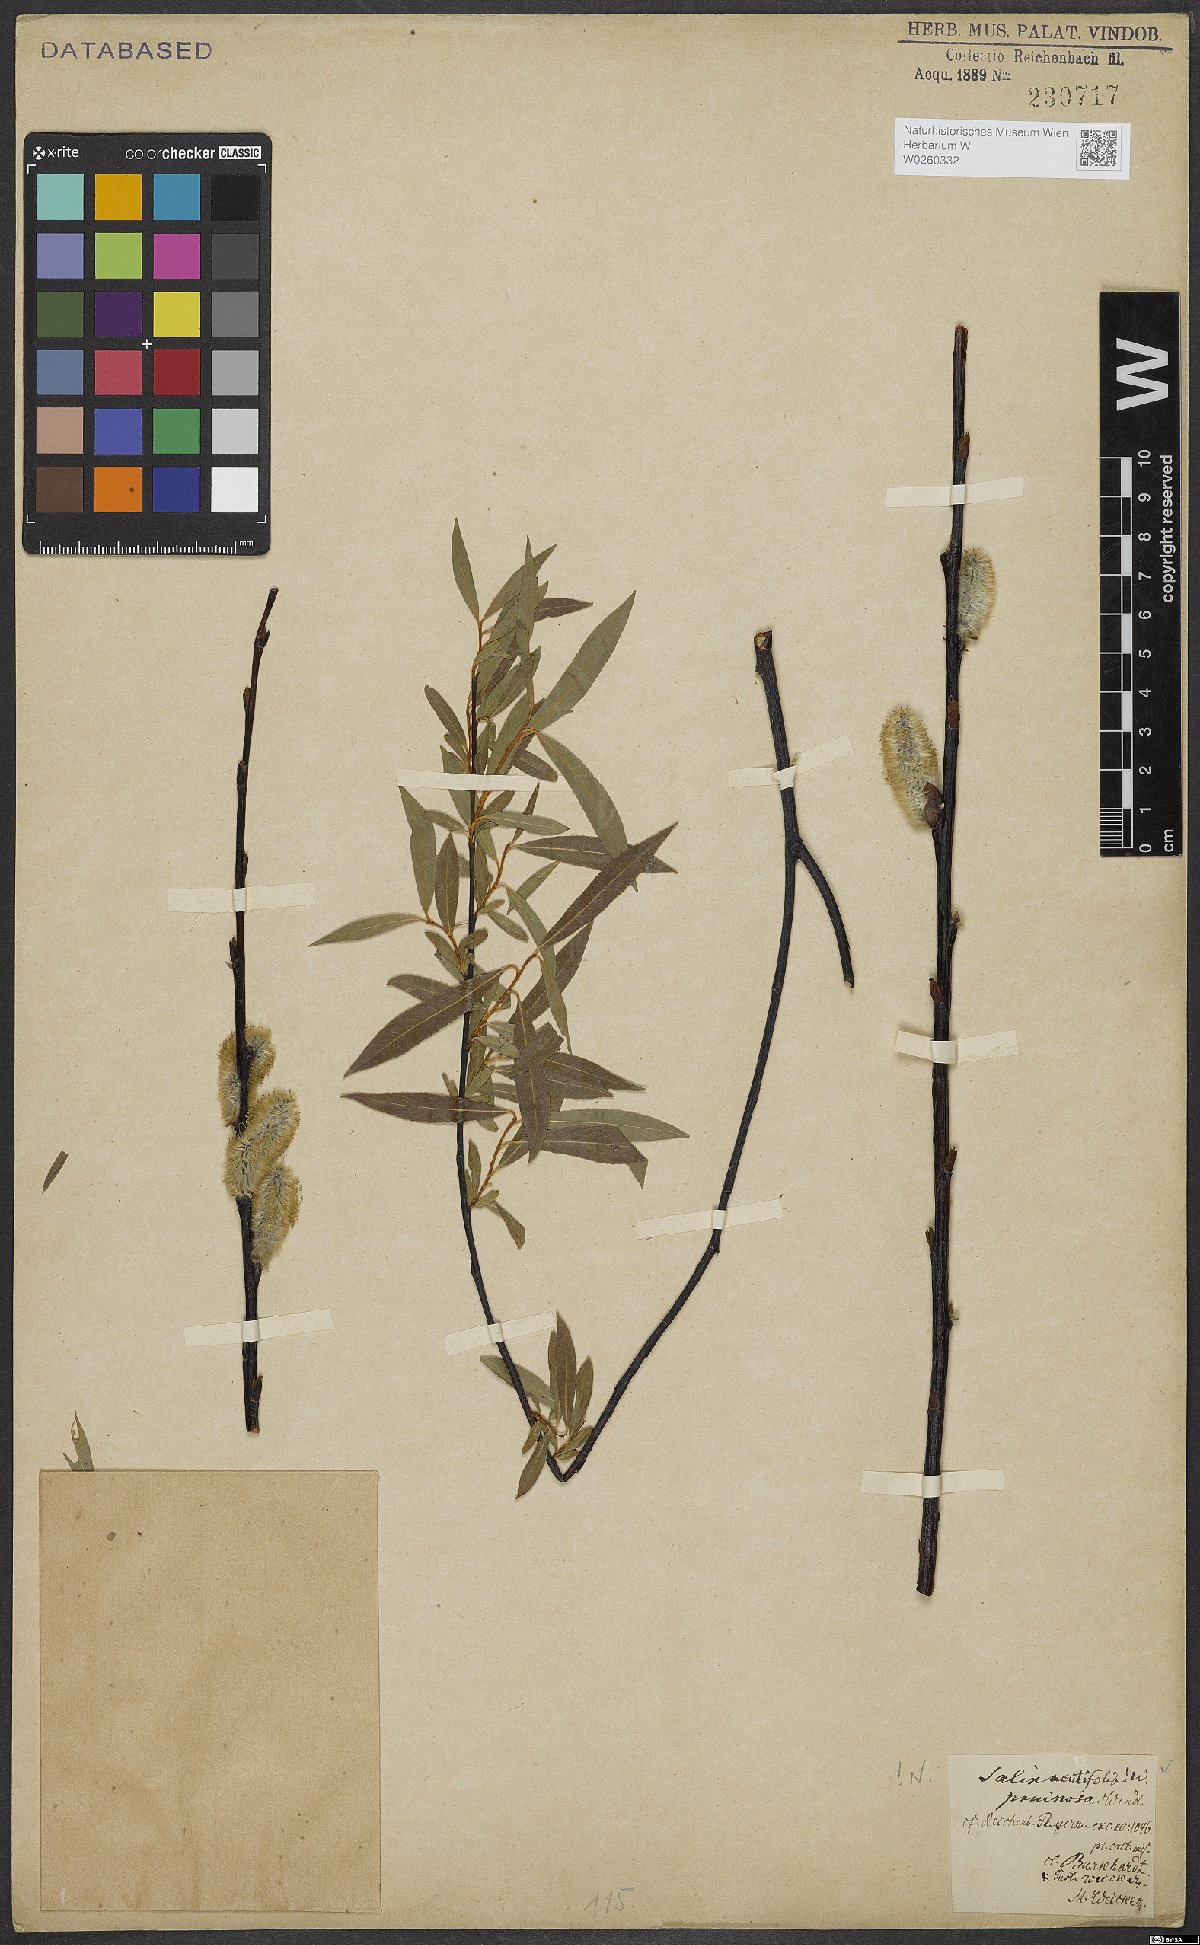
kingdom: Plantae
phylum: Tracheophyta
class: Magnoliopsida
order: Malpighiales
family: Salicaceae
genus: Salix
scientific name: Salix acutifolia
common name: Siberian violet-willow
